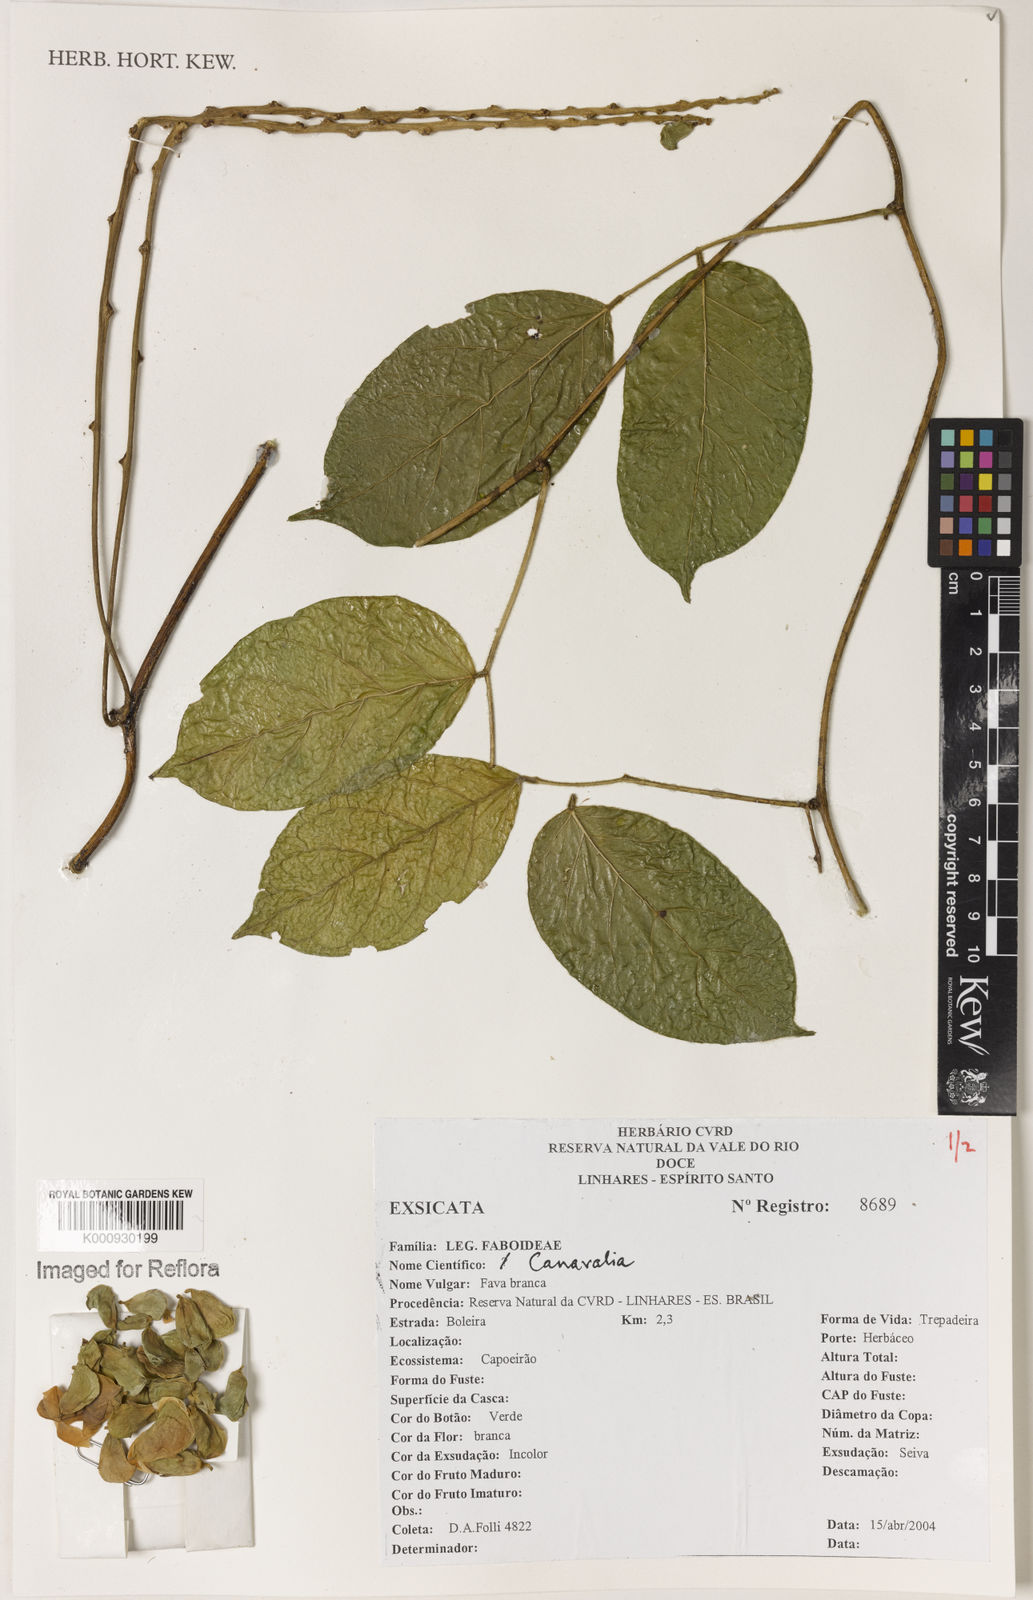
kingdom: Plantae
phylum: Tracheophyta
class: Magnoliopsida
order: Fabales
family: Fabaceae
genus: Canavalia
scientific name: Canavalia
